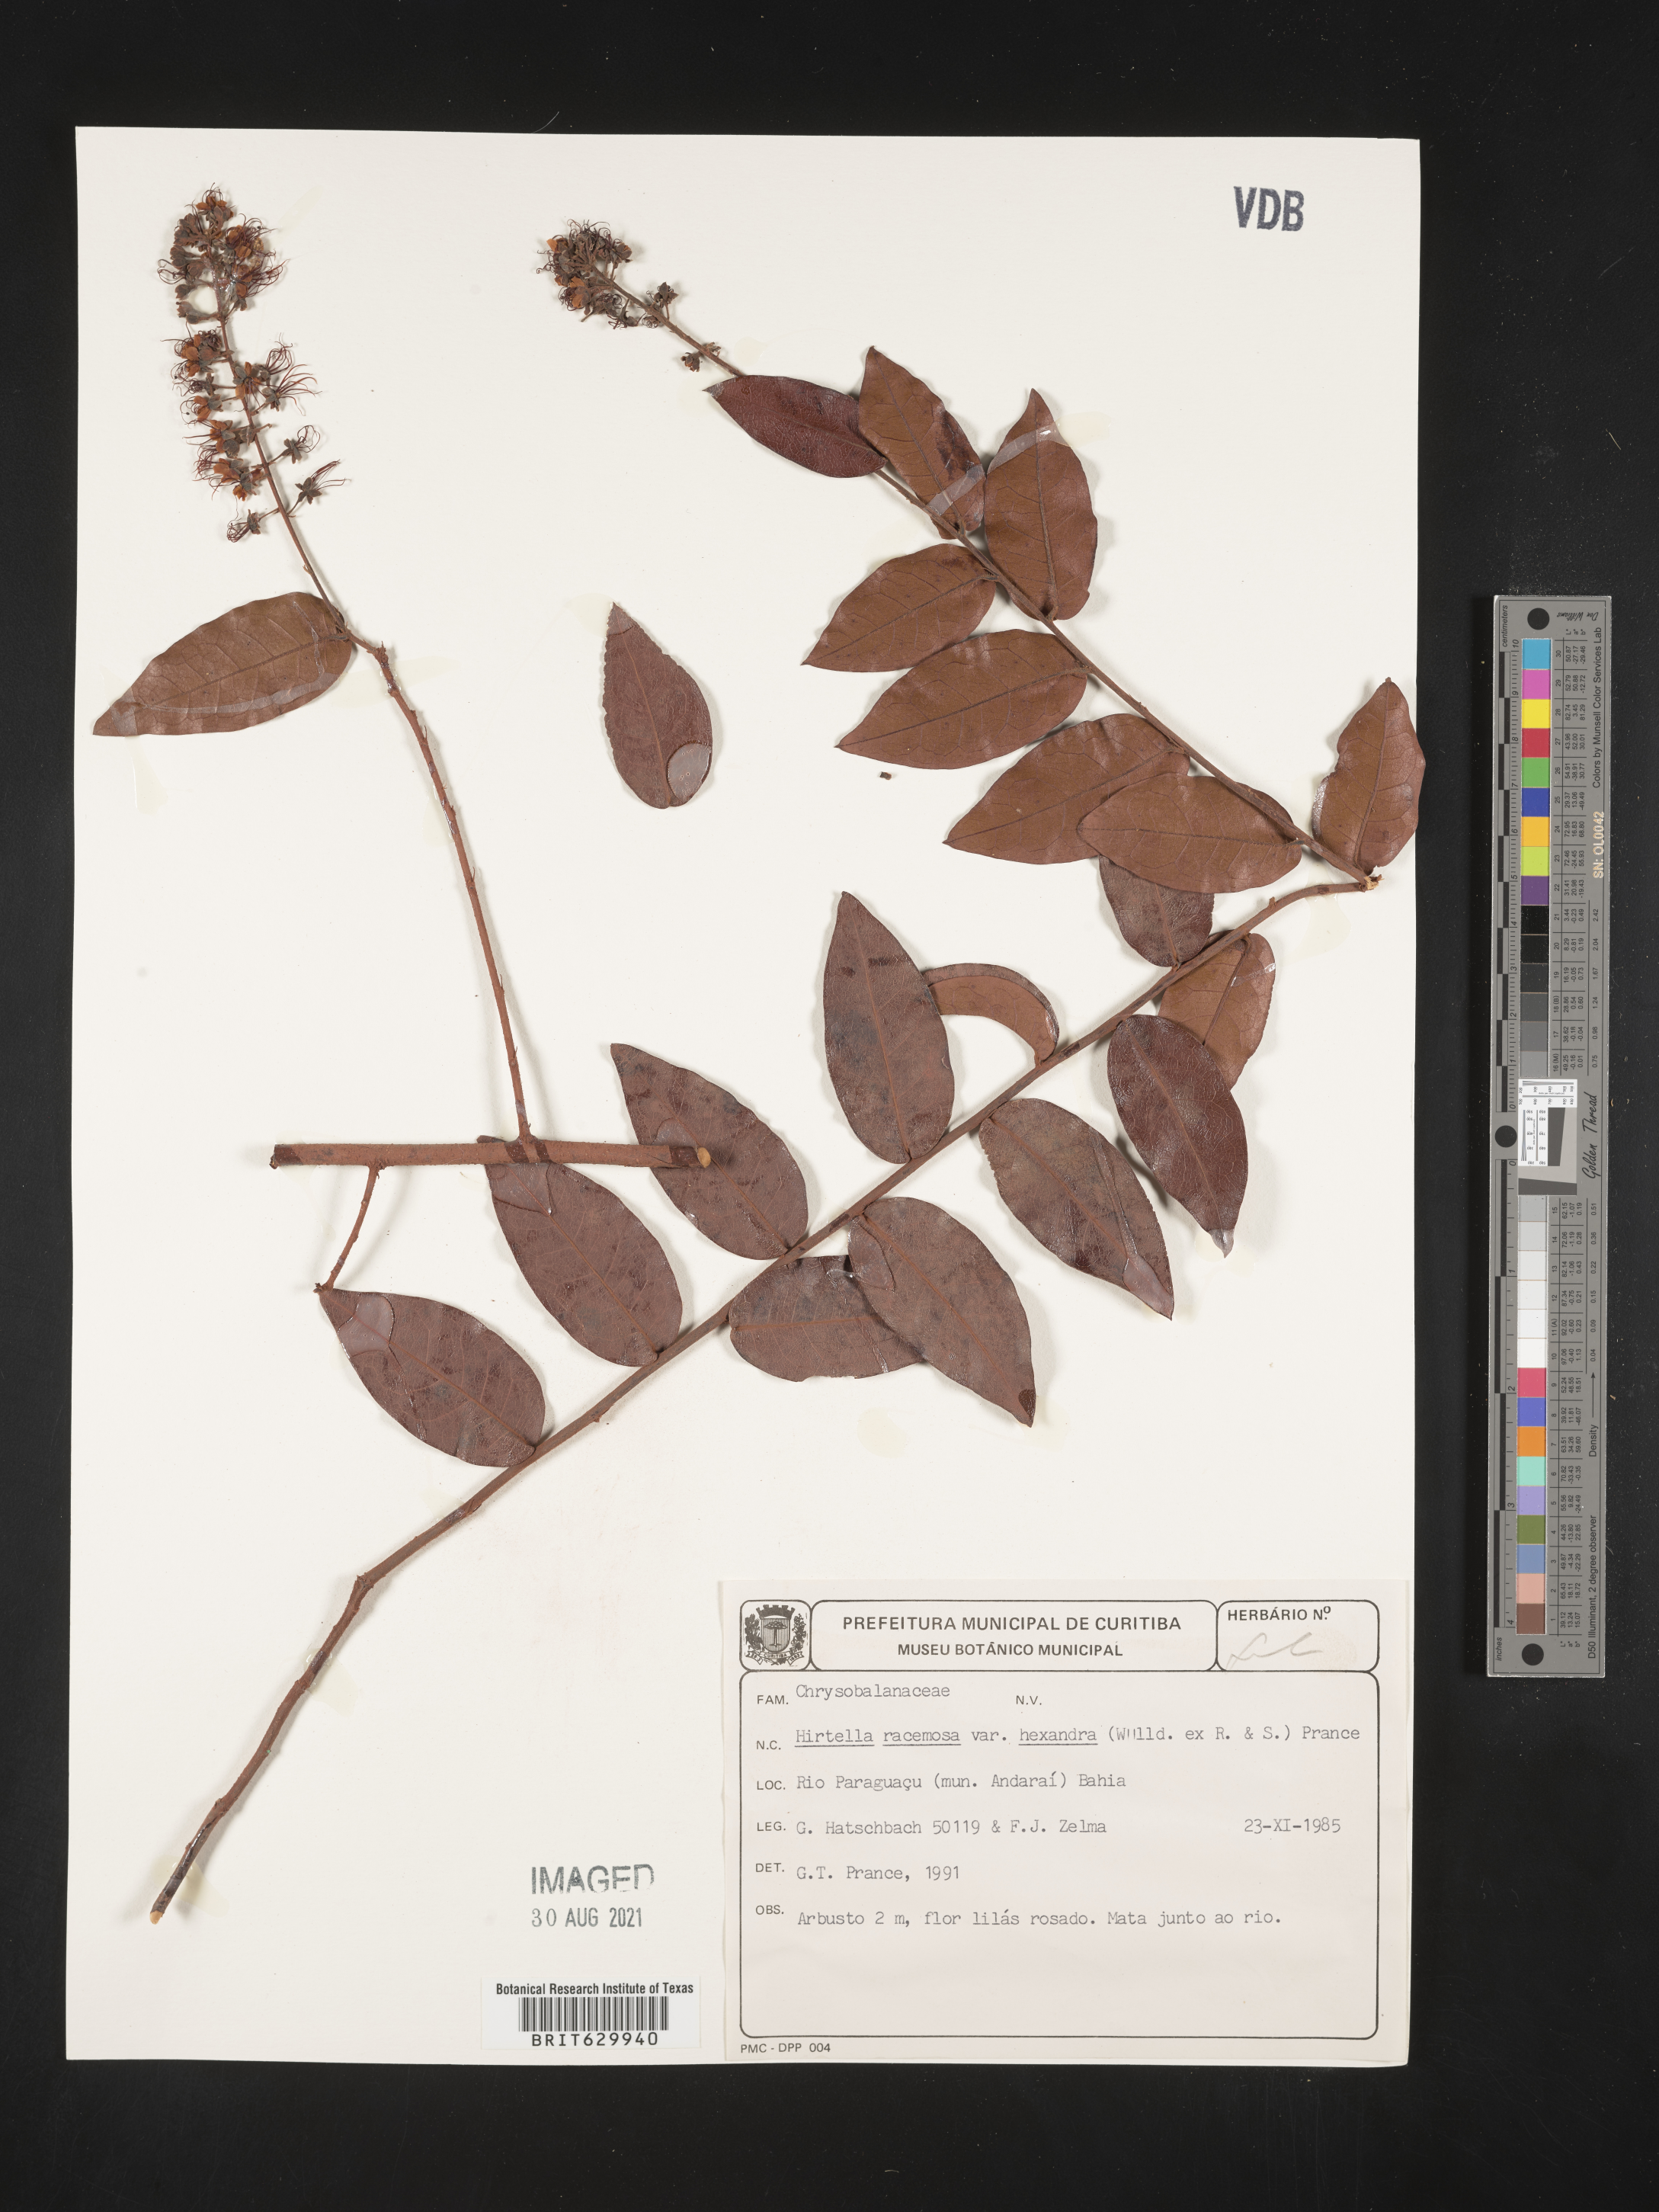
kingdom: Plantae
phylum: Tracheophyta
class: Magnoliopsida
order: Malpighiales
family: Chrysobalanaceae
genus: Hirtella
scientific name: Hirtella racemosa
